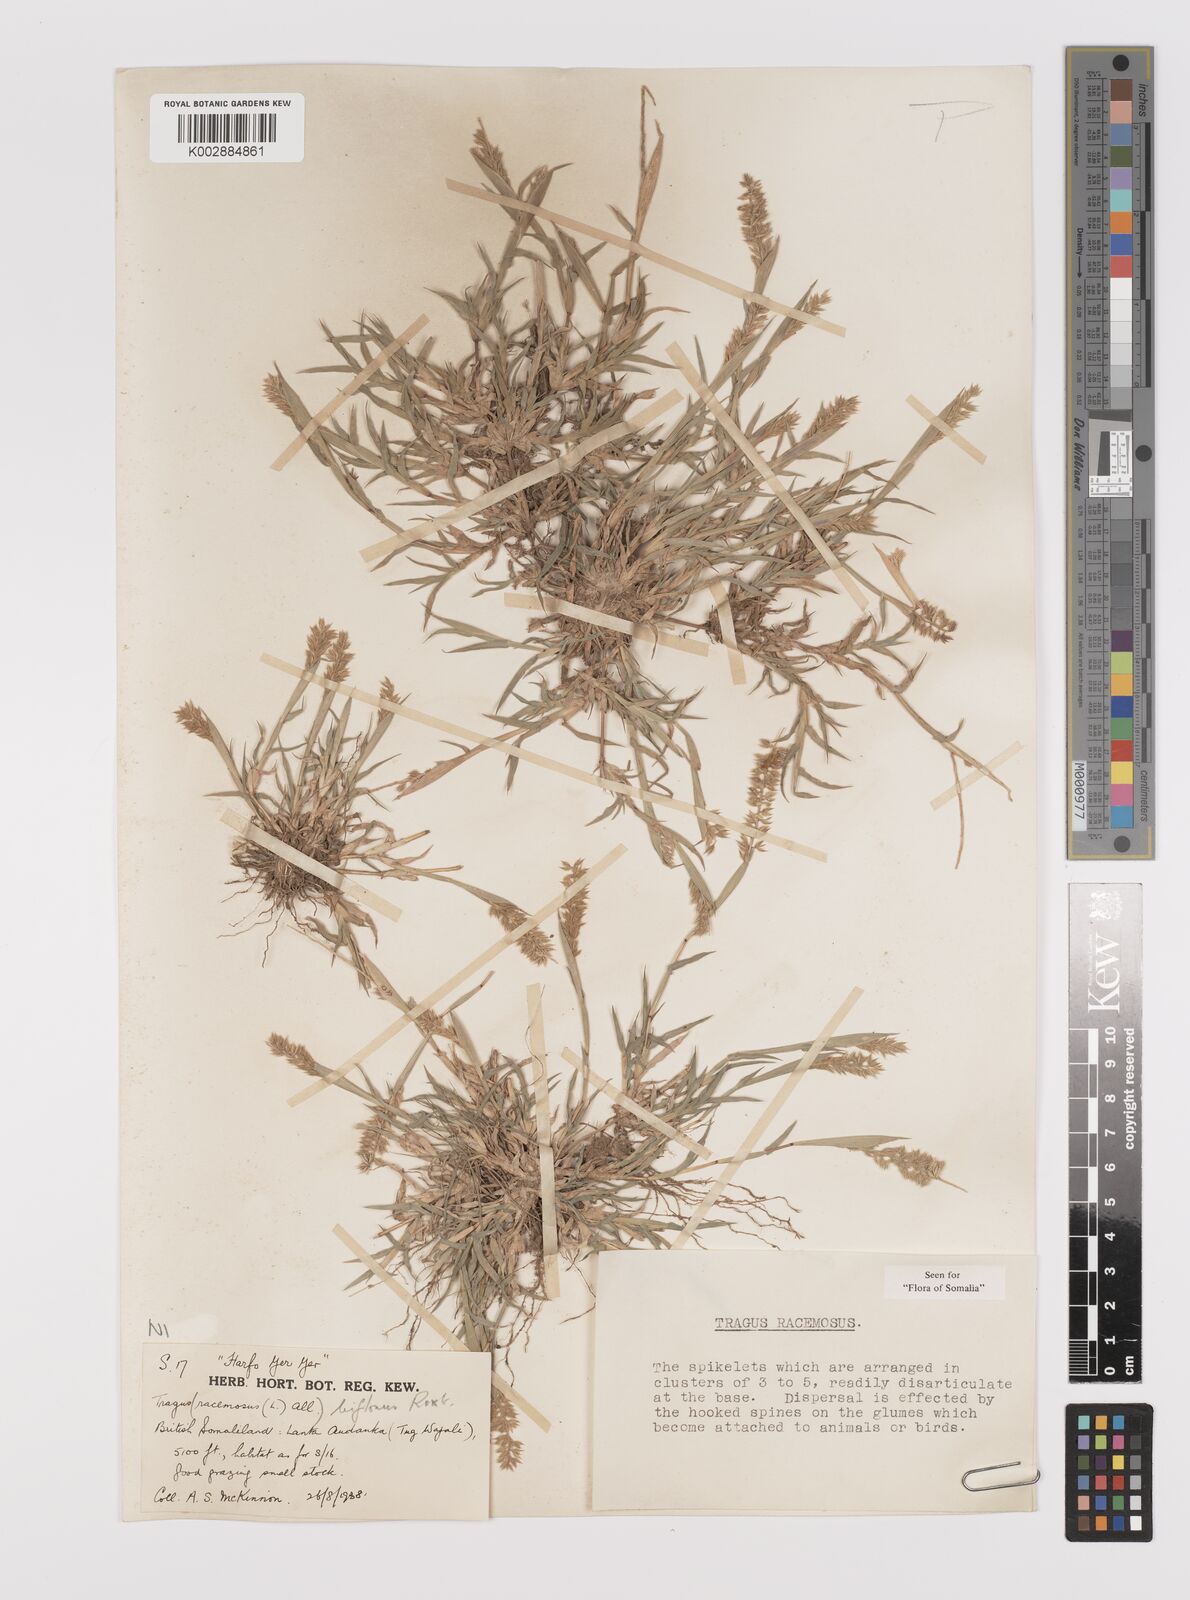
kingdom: Plantae
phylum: Tracheophyta
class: Liliopsida
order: Poales
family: Poaceae
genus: Tragus
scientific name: Tragus racemosus
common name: European bur-grass
